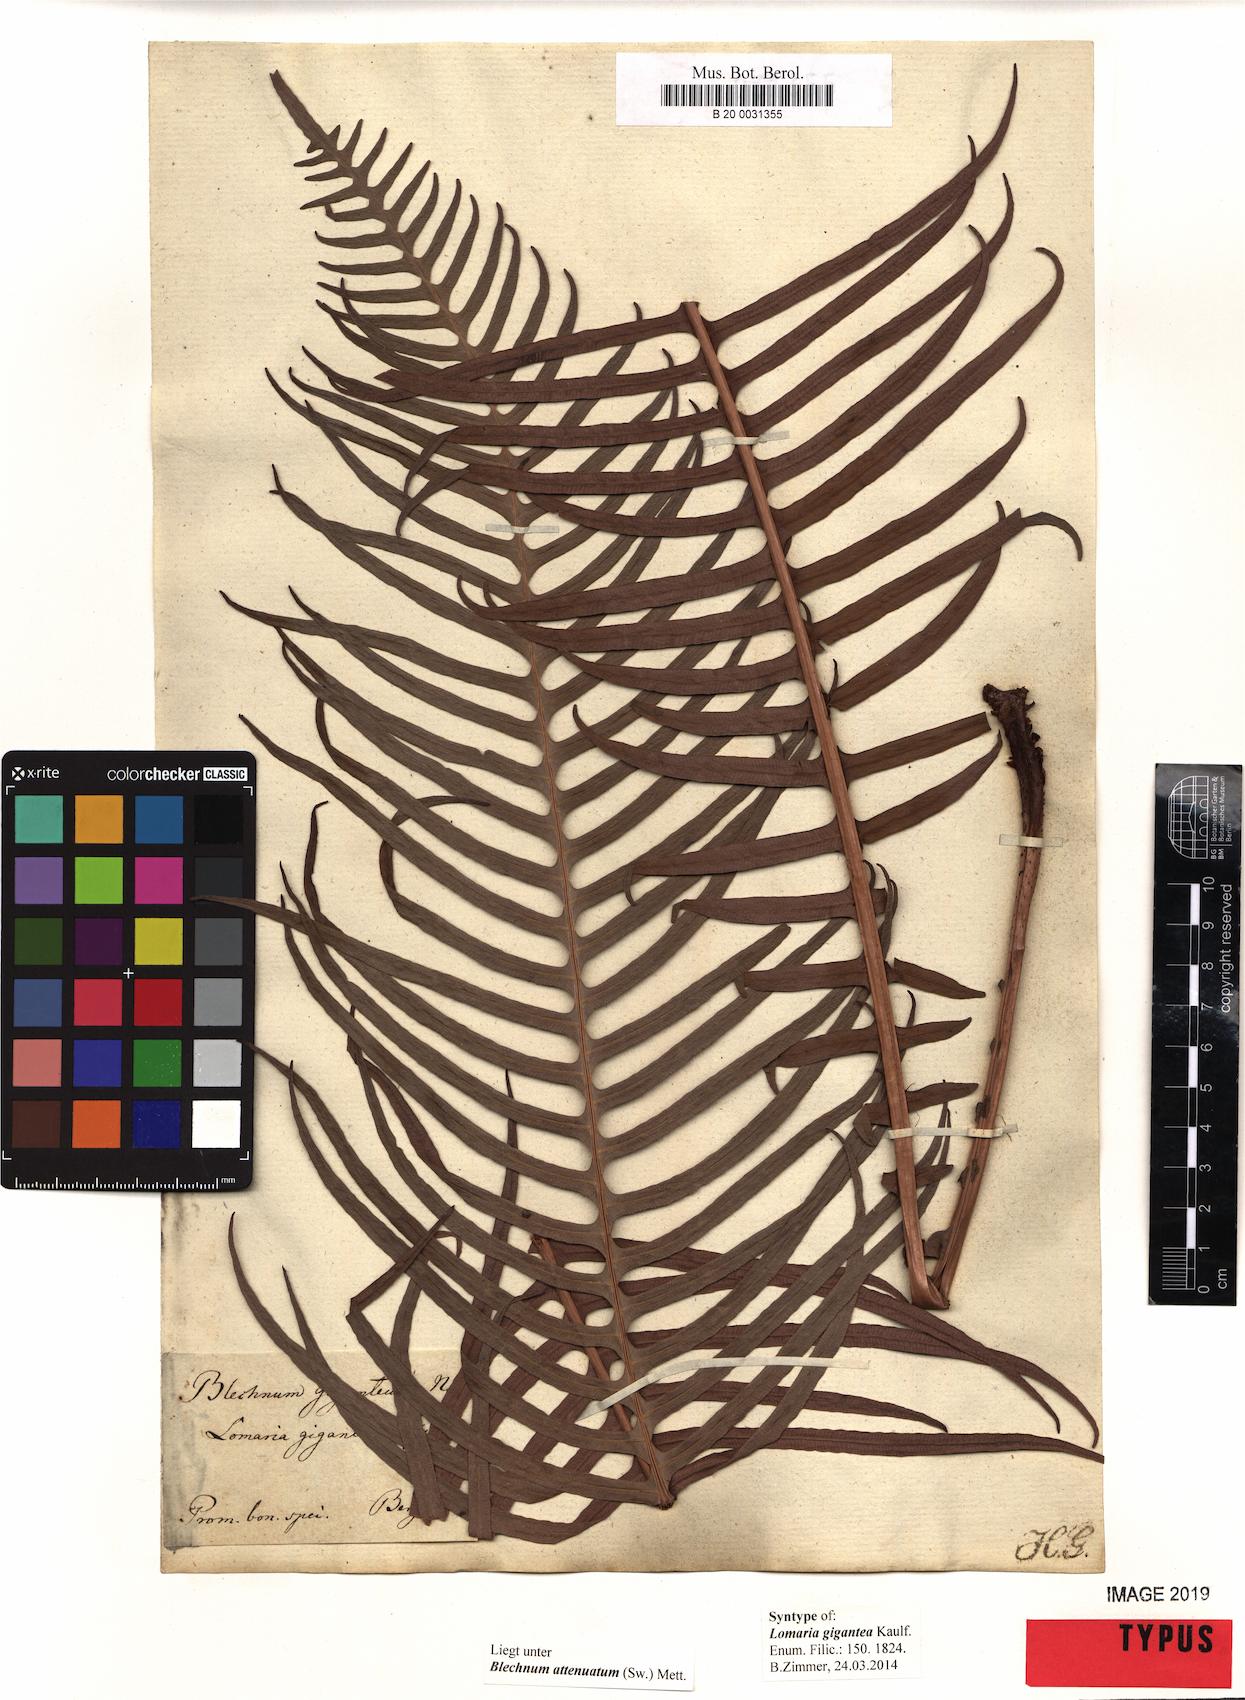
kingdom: Plantae
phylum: Tracheophyta
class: Polypodiopsida
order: Polypodiales
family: Blechnaceae
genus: Lomaridium
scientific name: Lomaridium attenuatum
